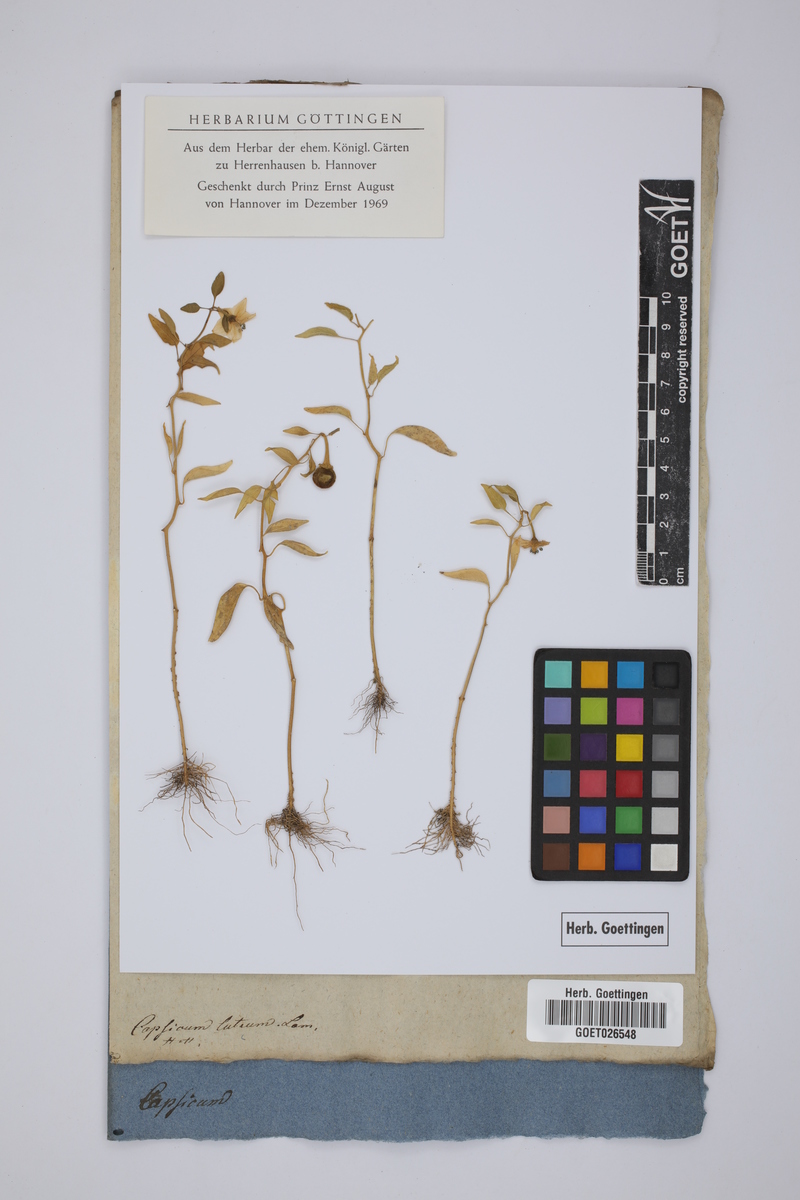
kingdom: Plantae
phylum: Tracheophyta
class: Magnoliopsida
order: Solanales
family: Solanaceae
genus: Capsicum
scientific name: Capsicum chinense
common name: Yellow squash pepper
